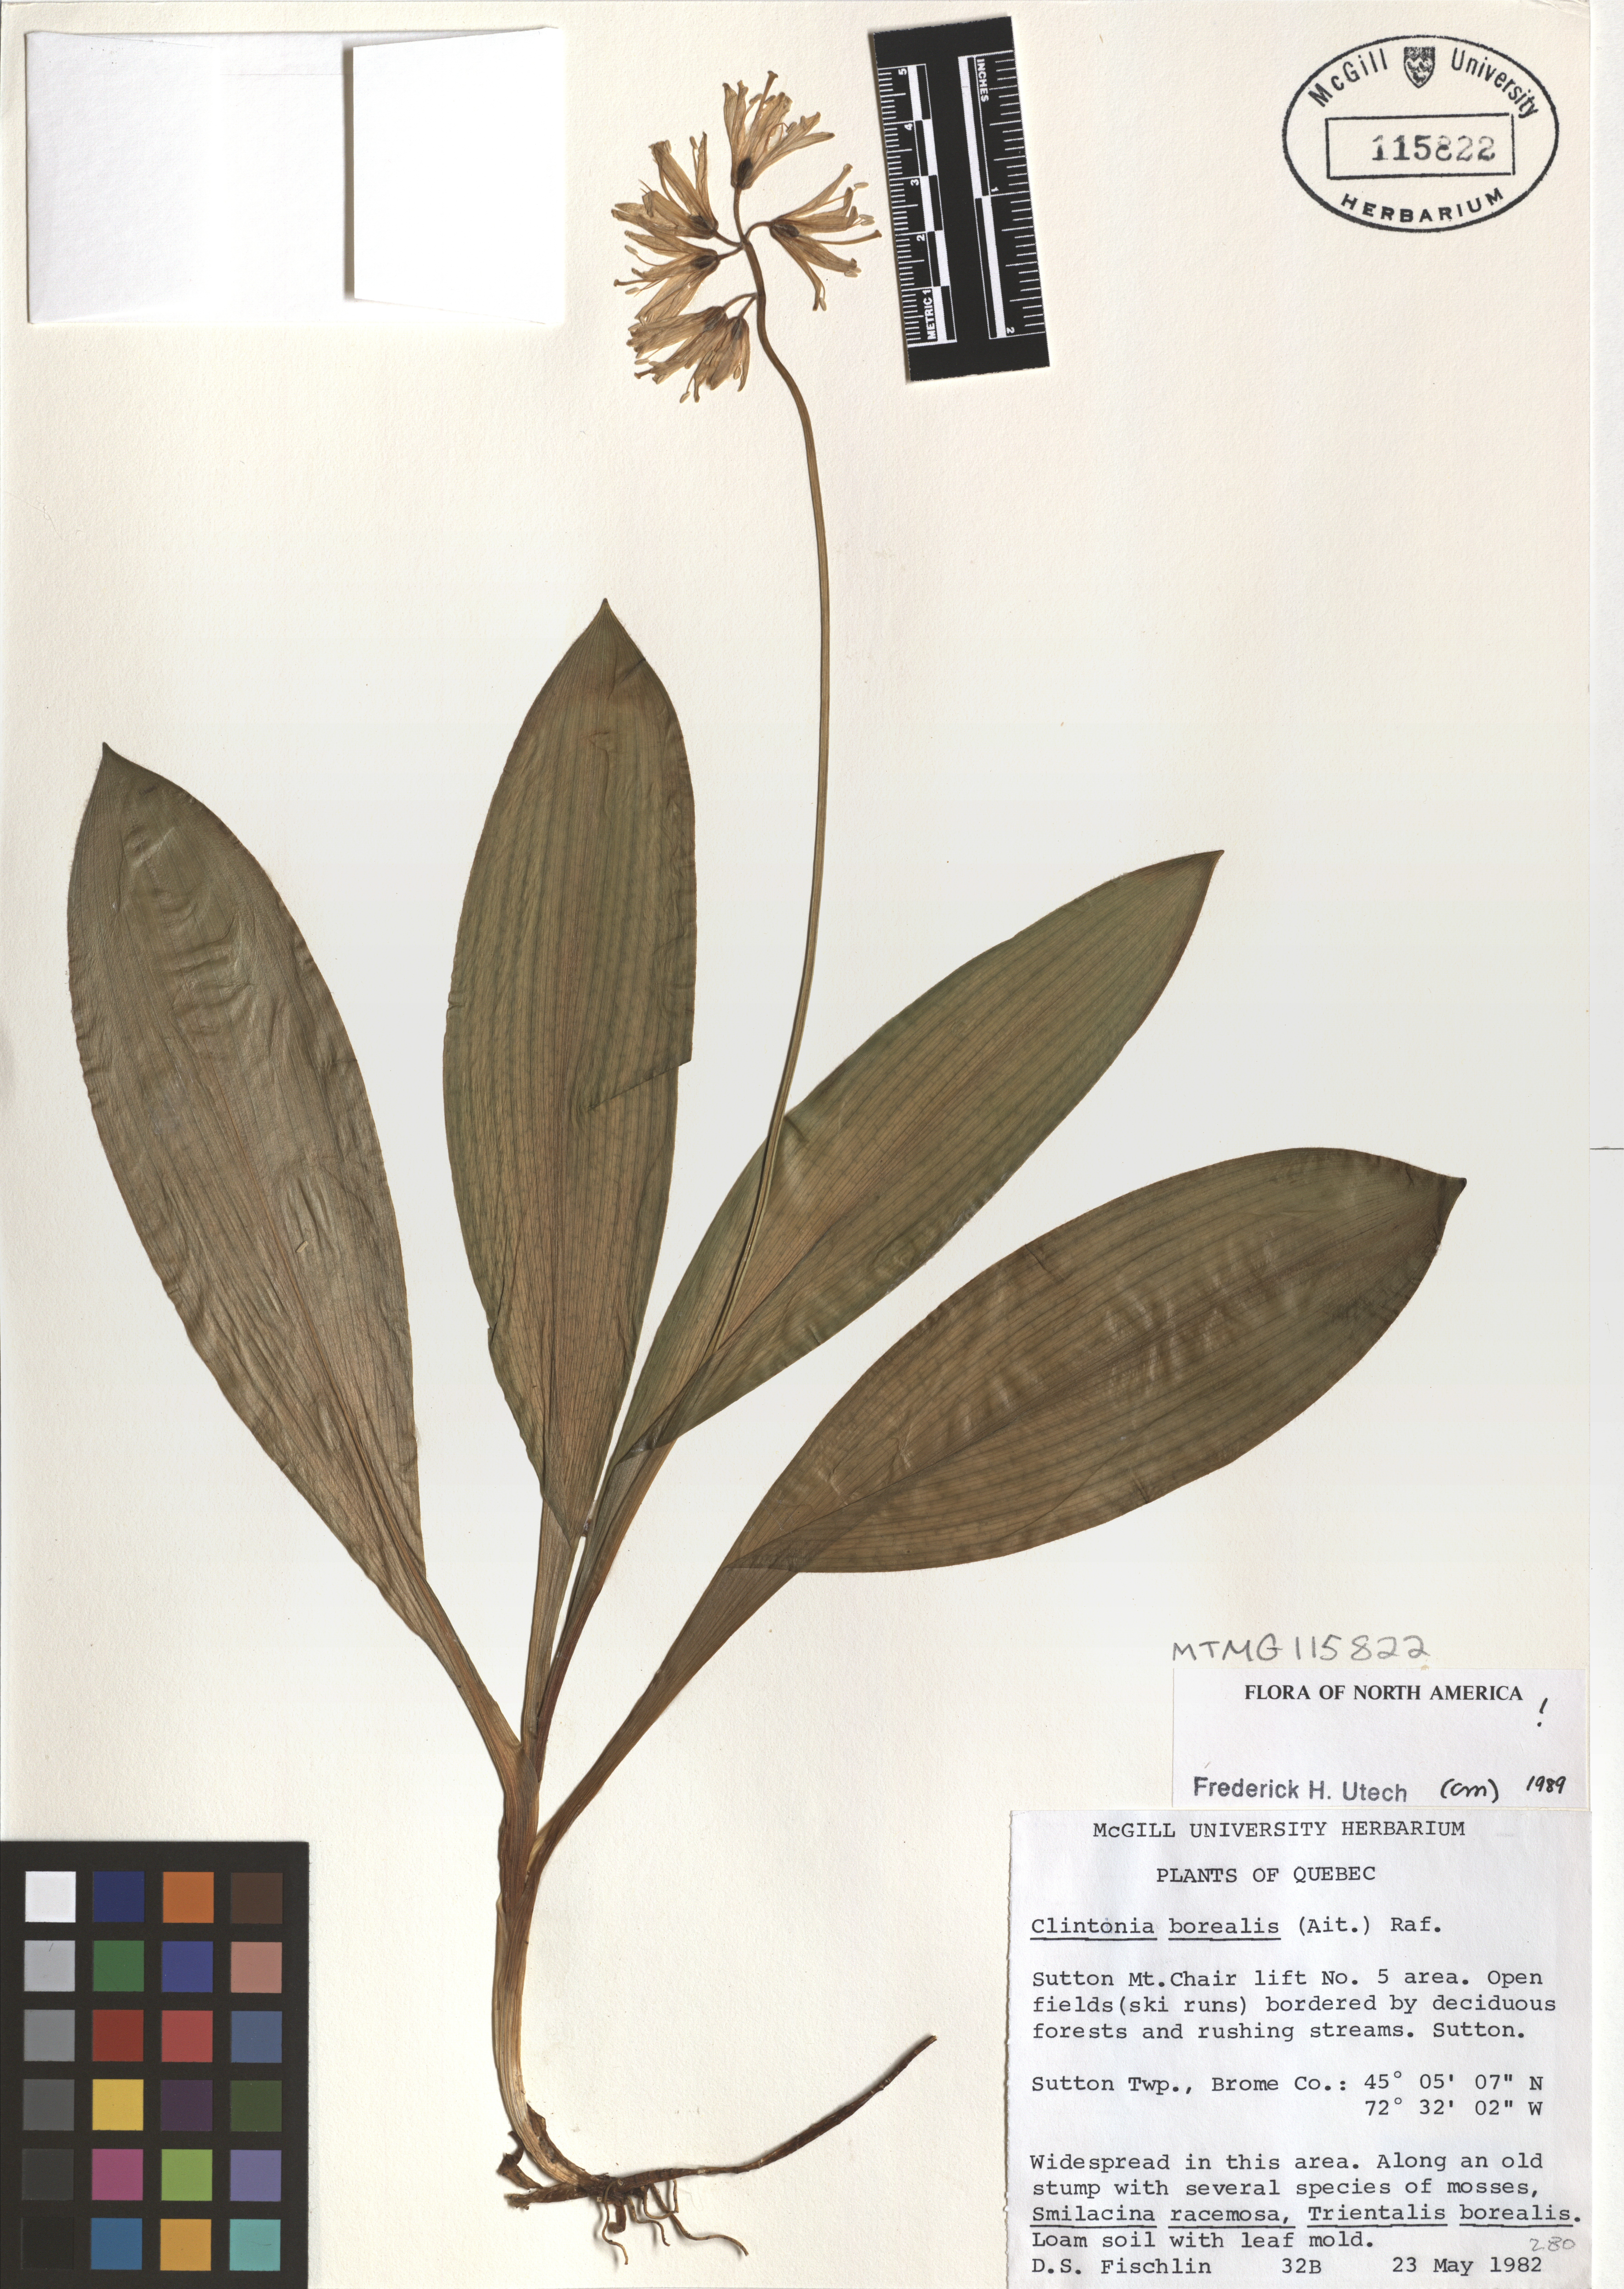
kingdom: Plantae
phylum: Tracheophyta
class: Liliopsida
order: Liliales
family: Liliaceae
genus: Clintonia
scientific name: Clintonia borealis
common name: Yellow clintonia
